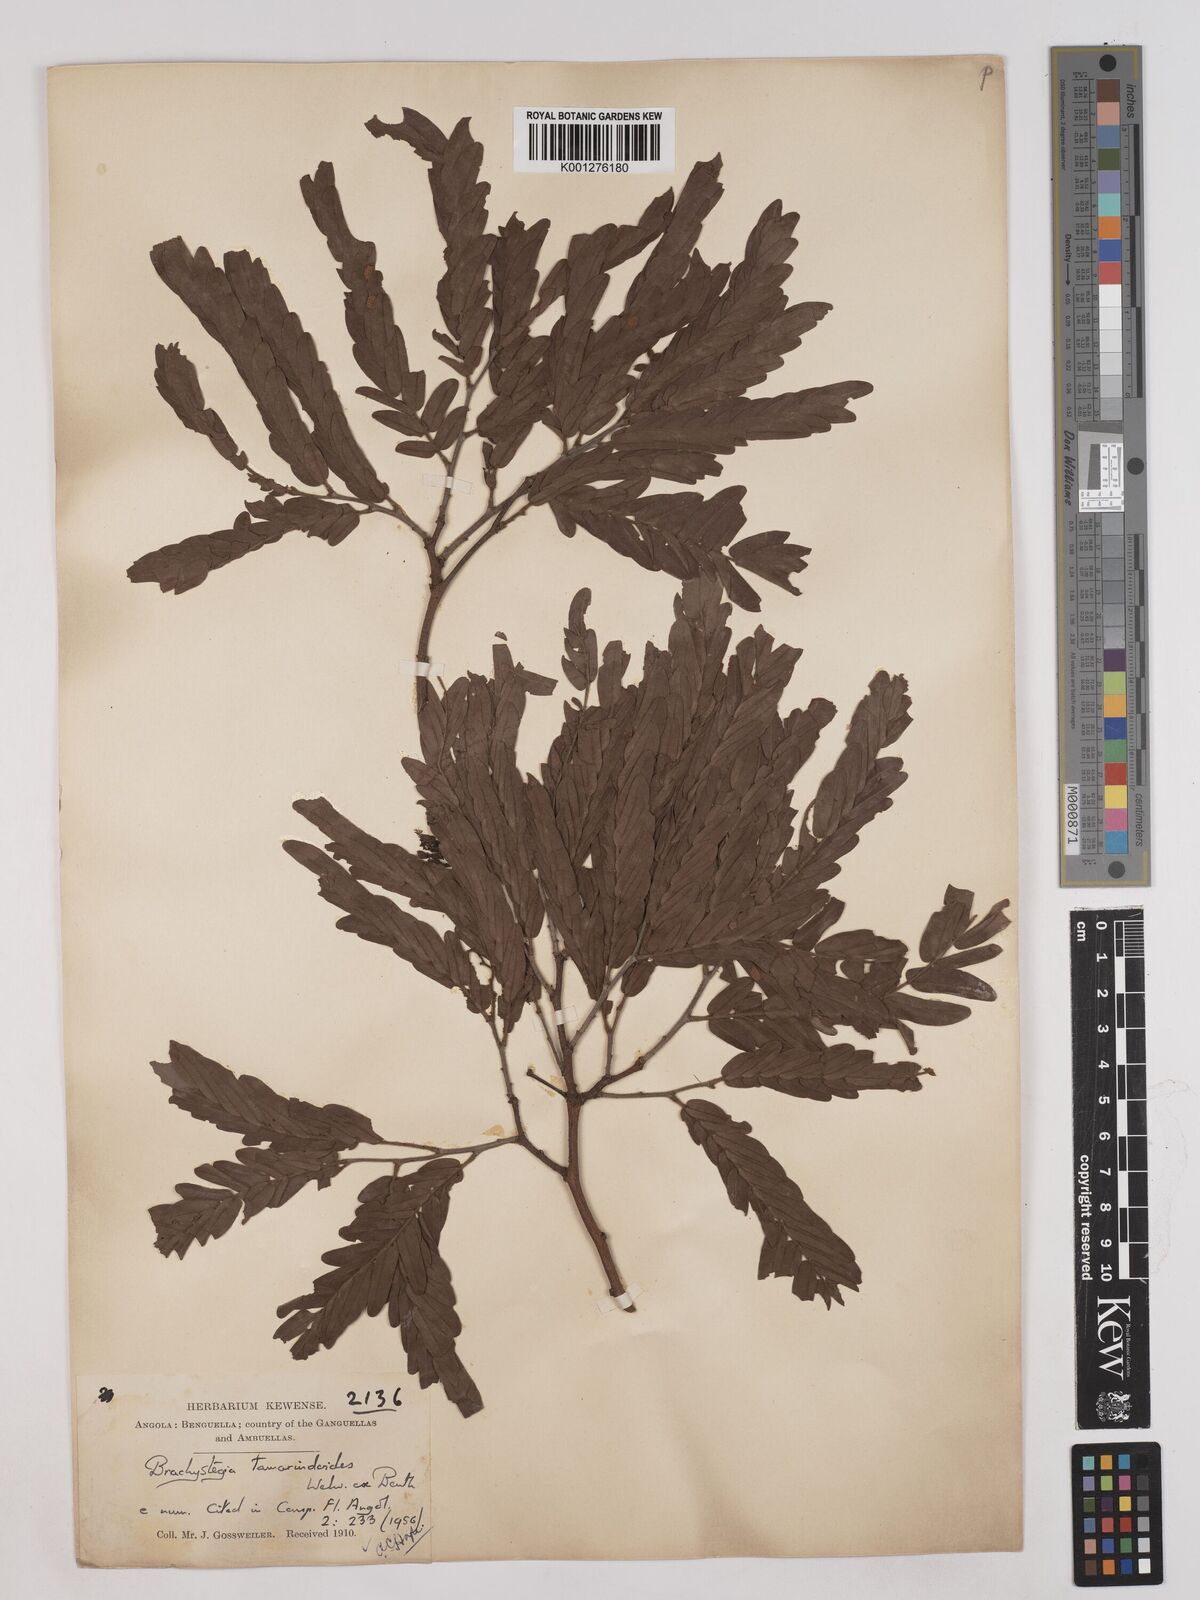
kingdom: Plantae
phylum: Tracheophyta
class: Magnoliopsida
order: Fabales
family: Fabaceae
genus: Brachystegia
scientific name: Brachystegia tamarindoides
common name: Mountain acacia
